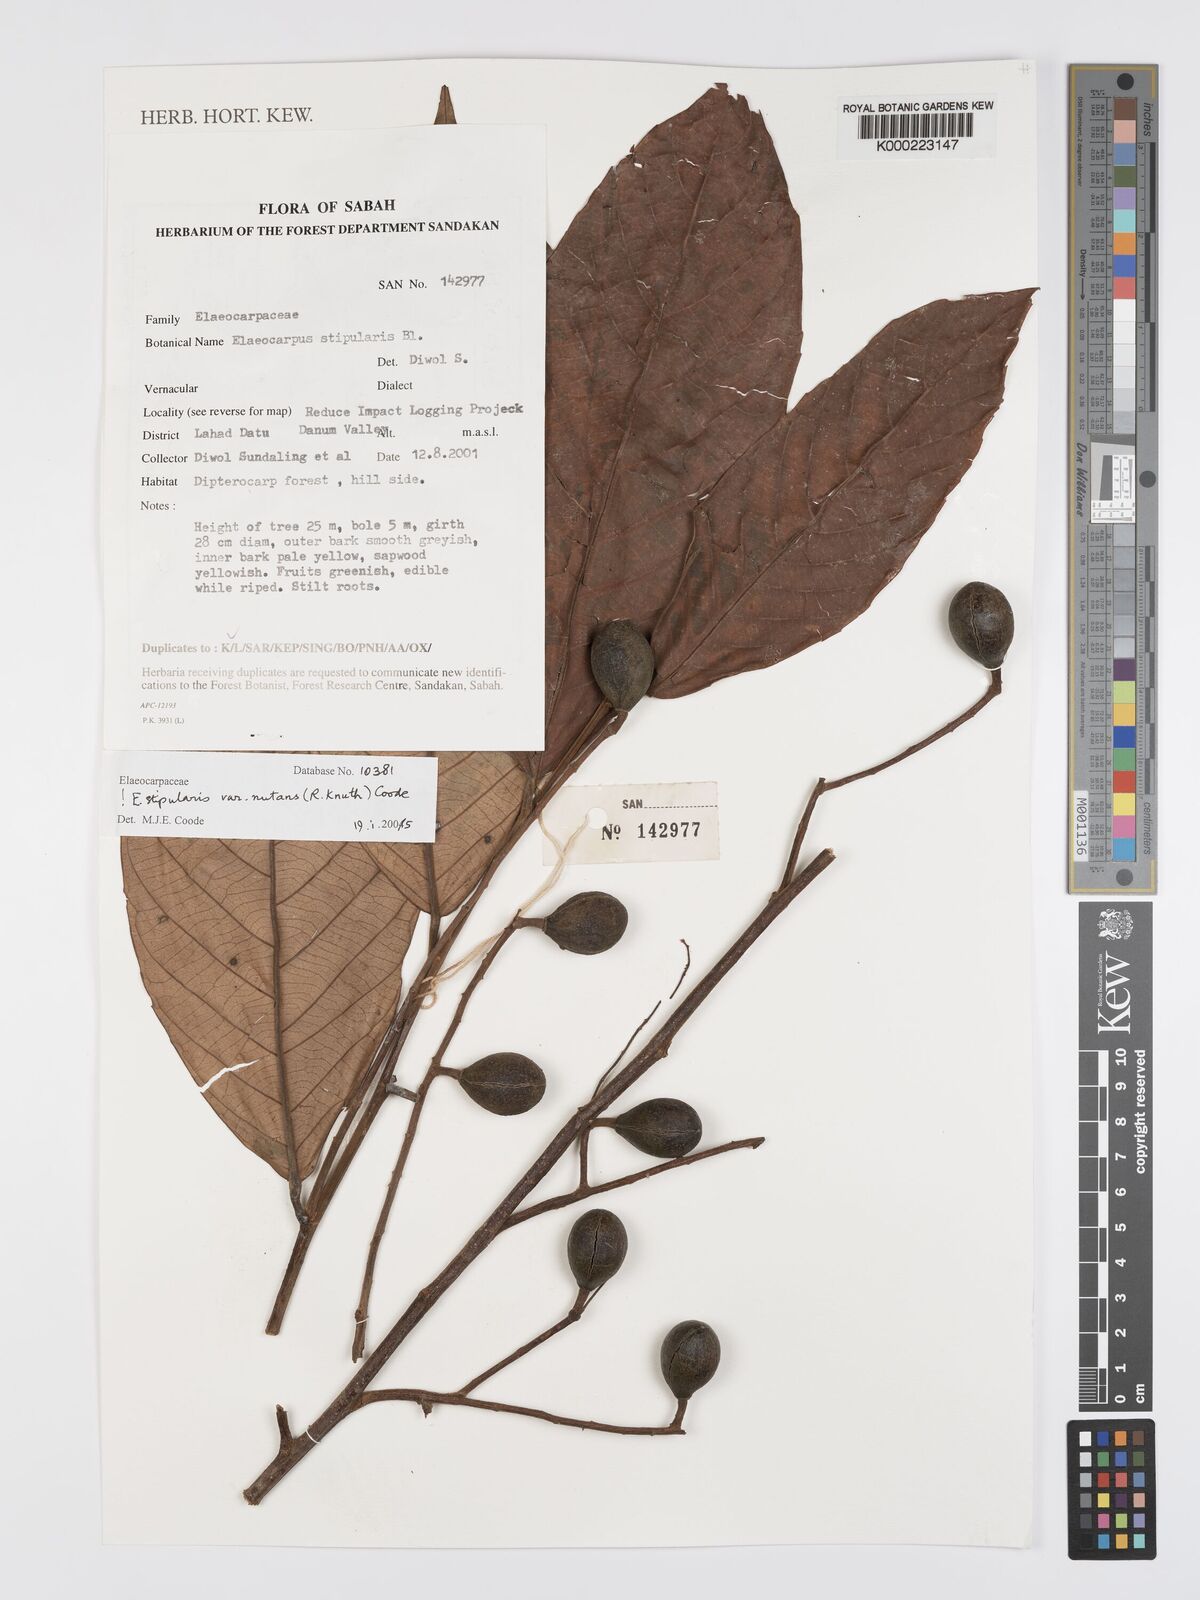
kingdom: Plantae
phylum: Tracheophyta
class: Magnoliopsida
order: Oxalidales
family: Elaeocarpaceae
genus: Elaeocarpus
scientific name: Elaeocarpus stipularis
